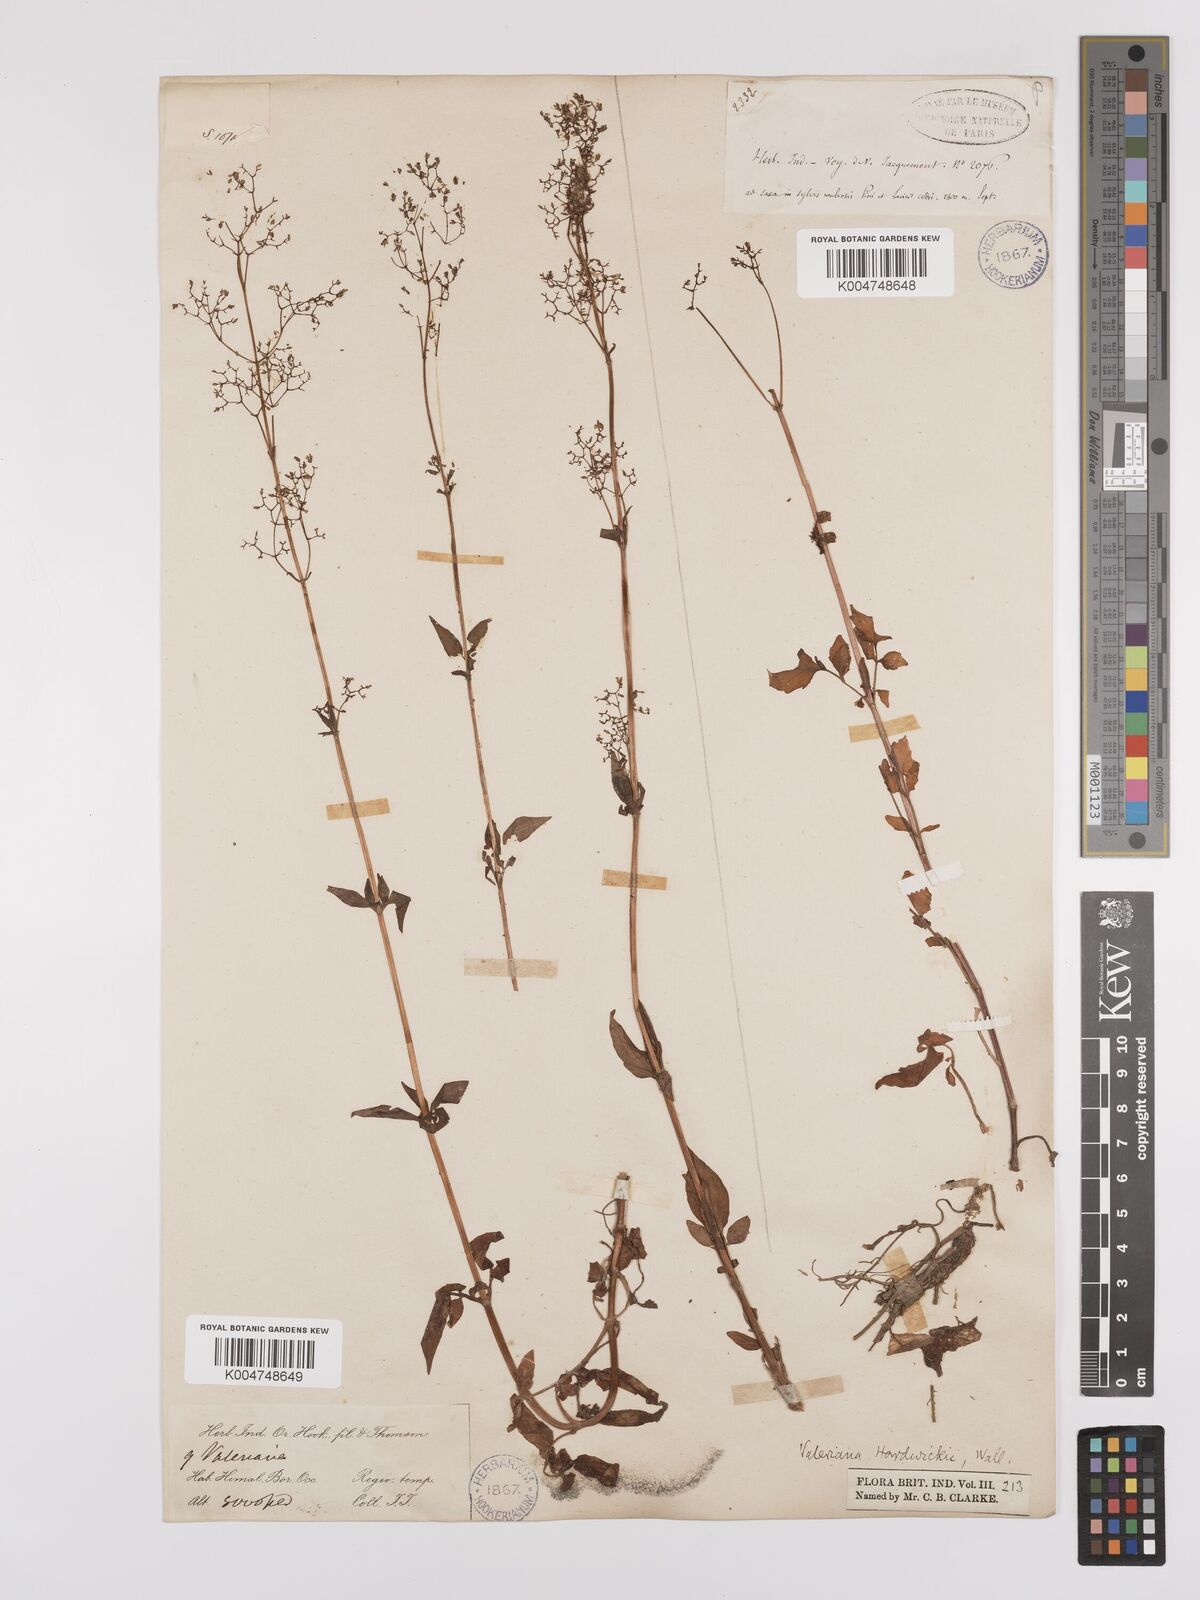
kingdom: Plantae
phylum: Tracheophyta
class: Magnoliopsida
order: Dipsacales
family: Caprifoliaceae
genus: Valeriana
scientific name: Valeriana hardwickei
